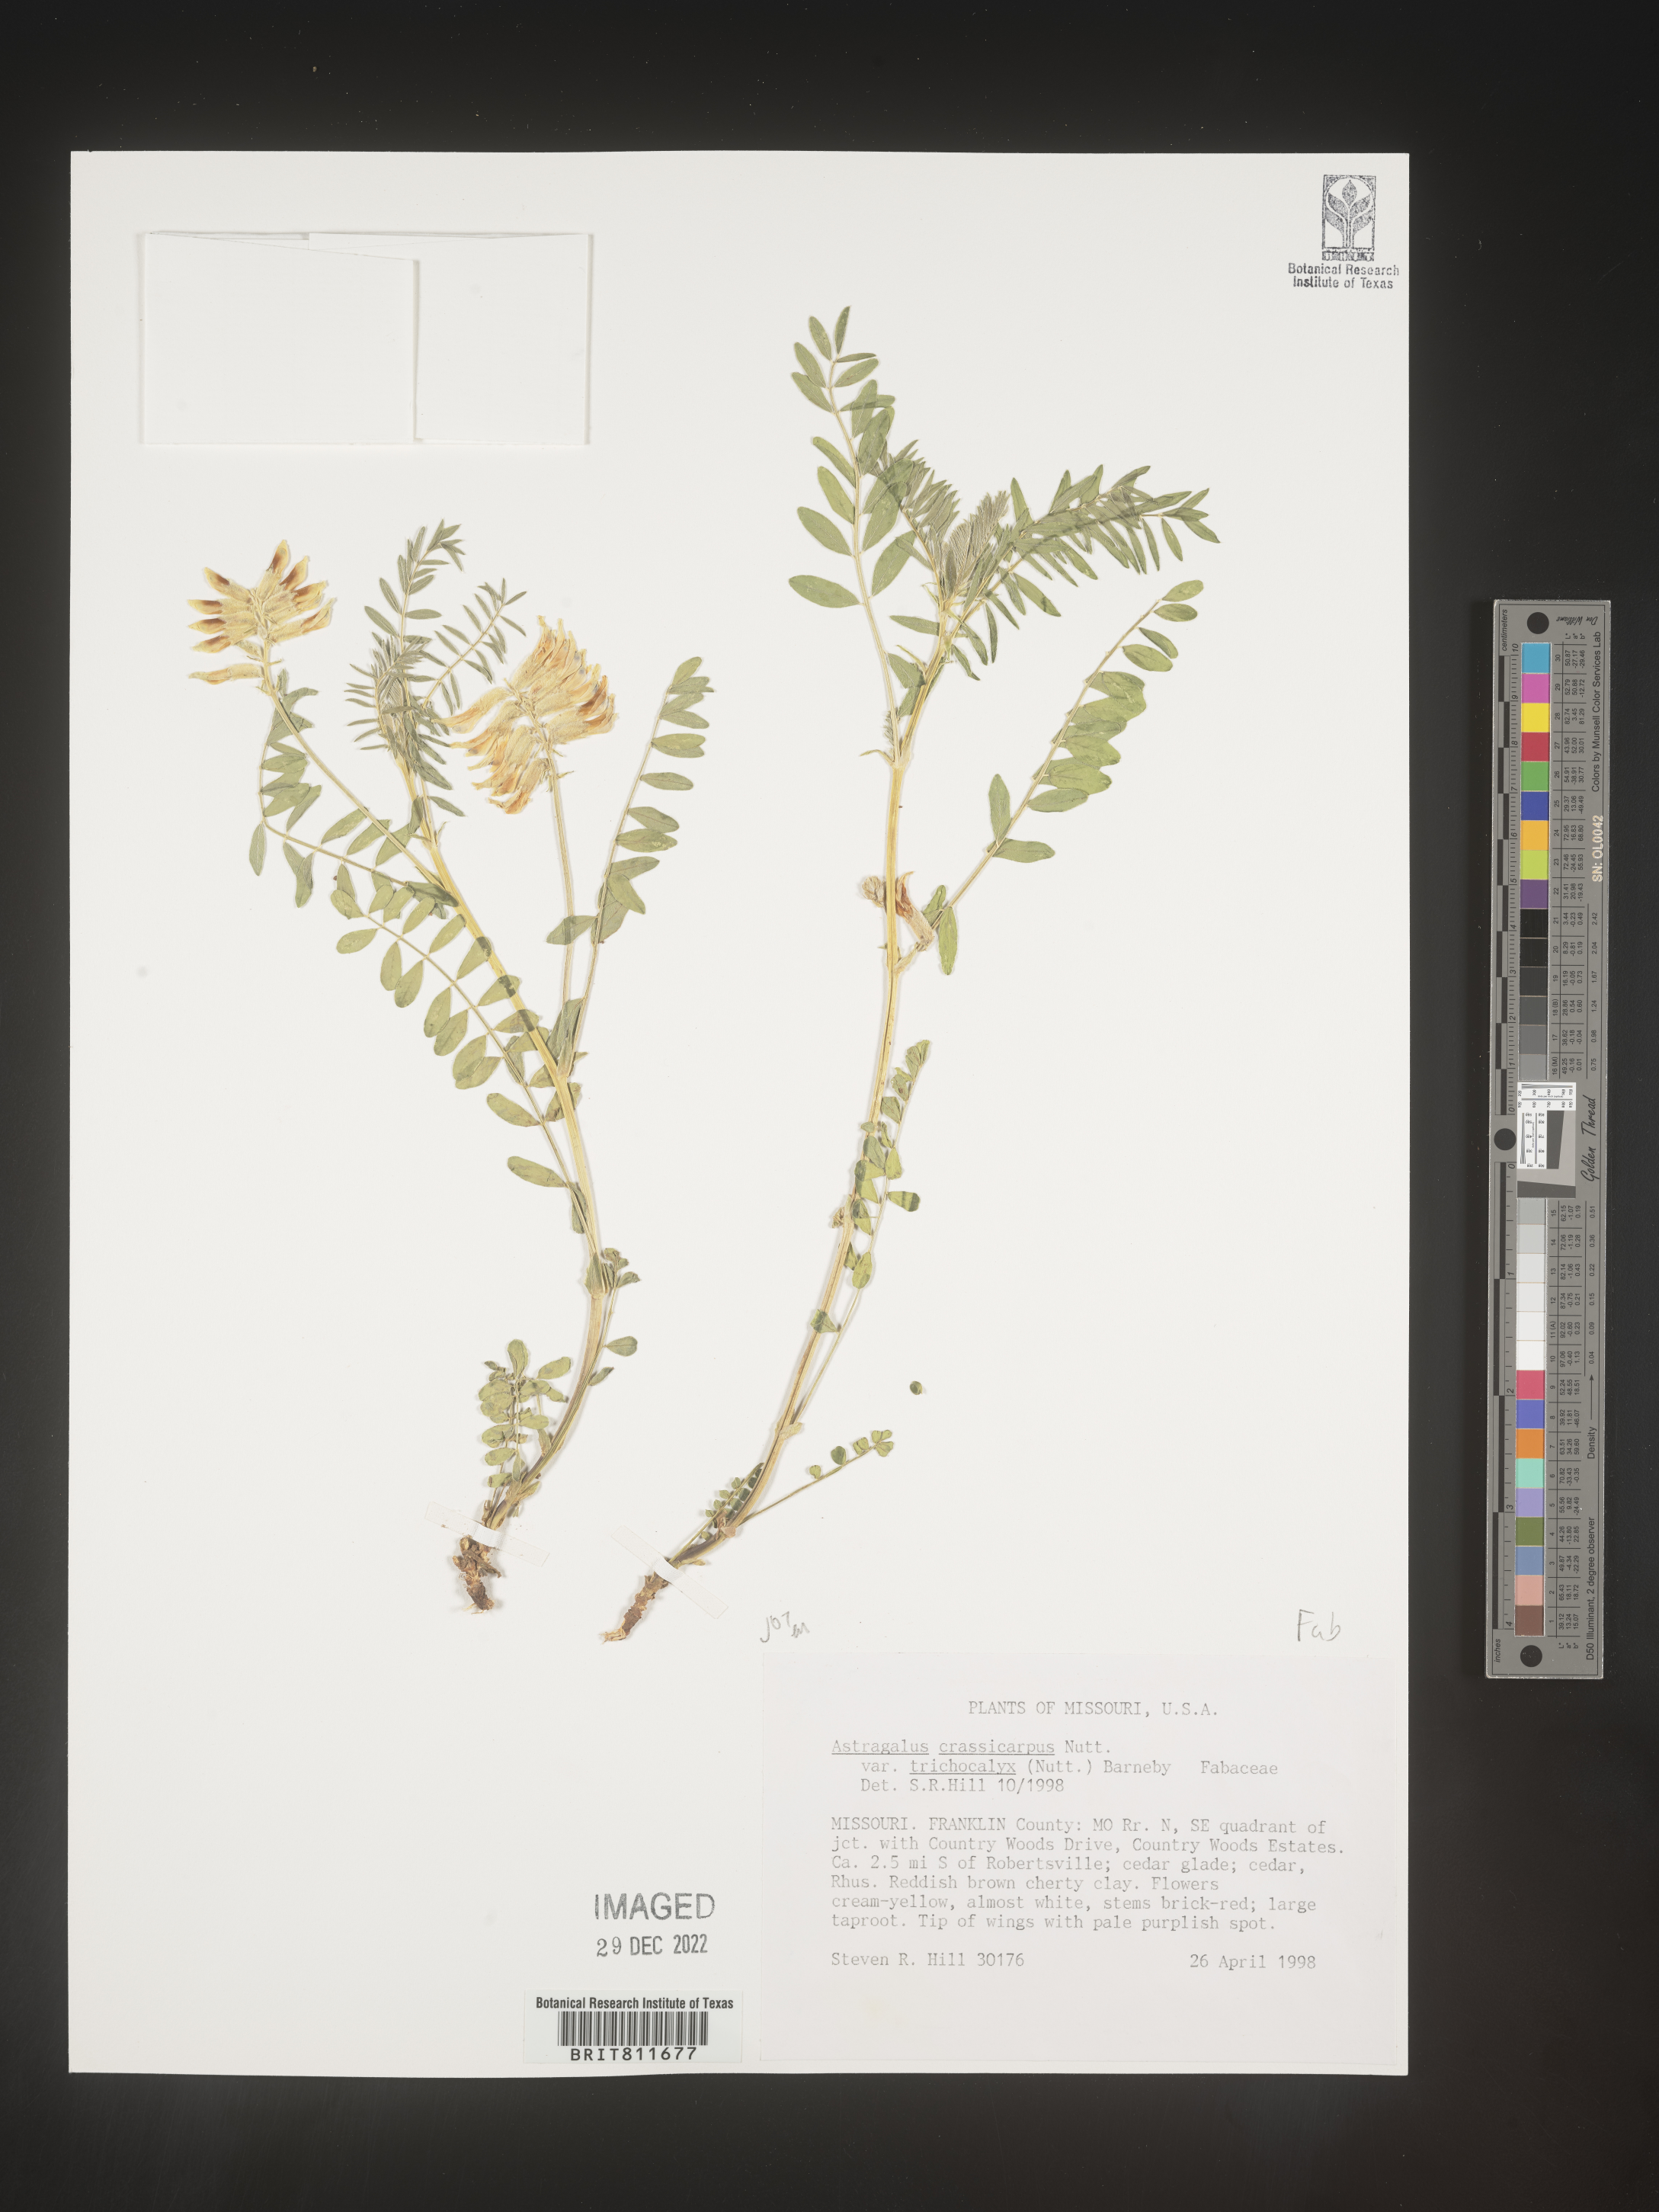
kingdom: Plantae
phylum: Tracheophyta
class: Magnoliopsida
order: Fabales
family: Fabaceae
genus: Astragalus
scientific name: Astragalus crassicarpus
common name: Ground-plum milk-vetch
